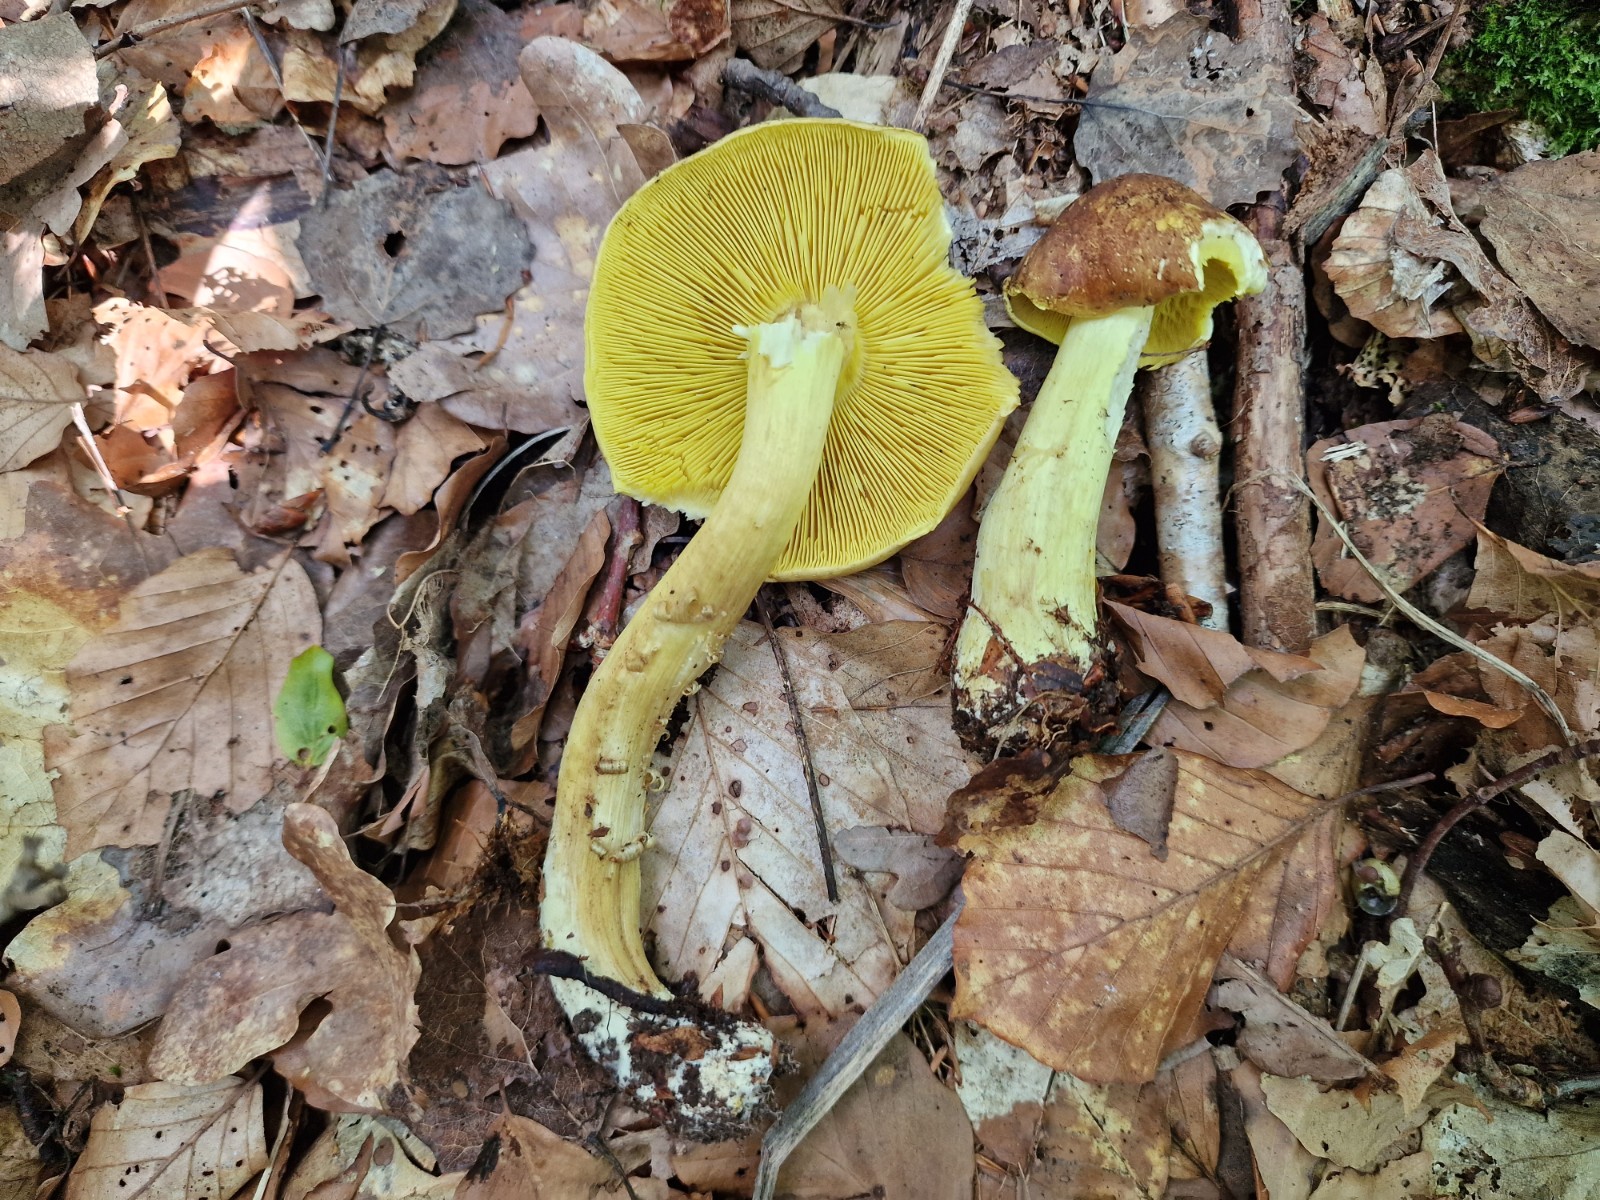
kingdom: Fungi
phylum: Basidiomycota
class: Agaricomycetes
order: Agaricales
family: Tricholomataceae
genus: Tricholoma
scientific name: Tricholoma frondosae
